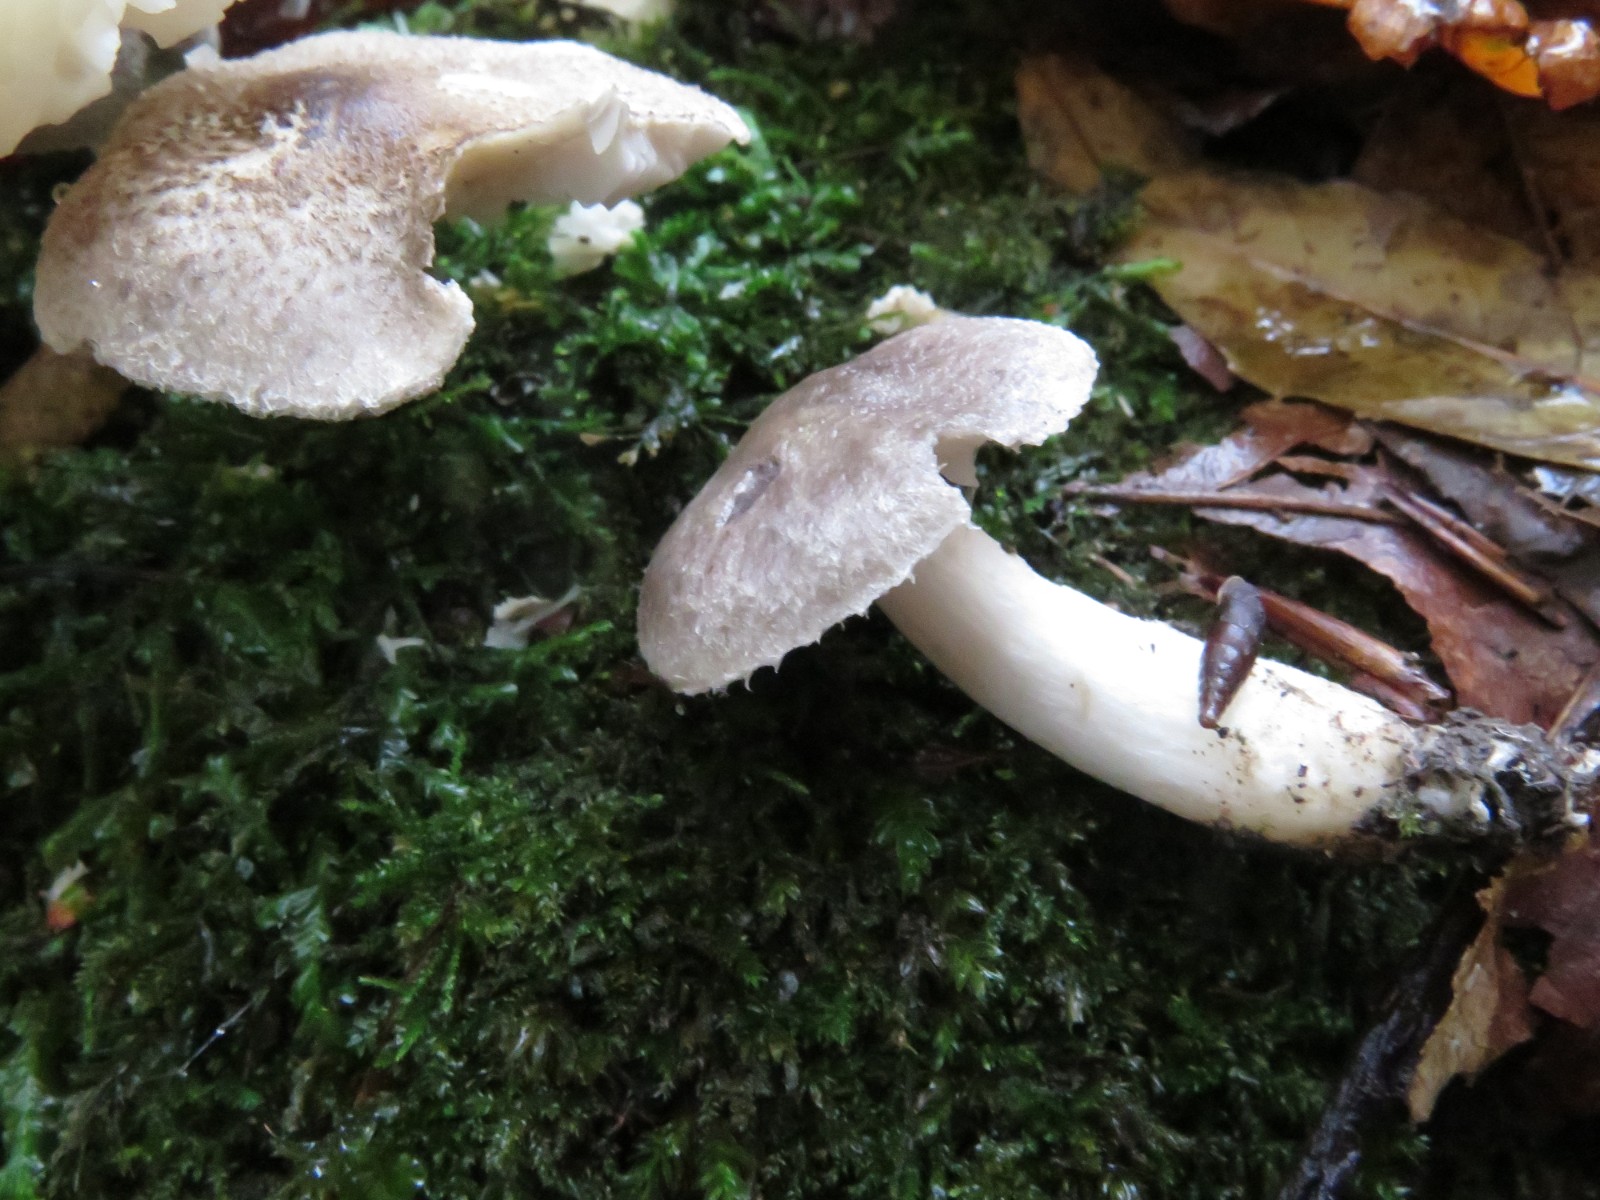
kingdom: Fungi
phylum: Basidiomycota
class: Agaricomycetes
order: Agaricales
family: Tricholomataceae
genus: Tricholoma
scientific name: Tricholoma scalpturatum
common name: gulplettet ridderhat
